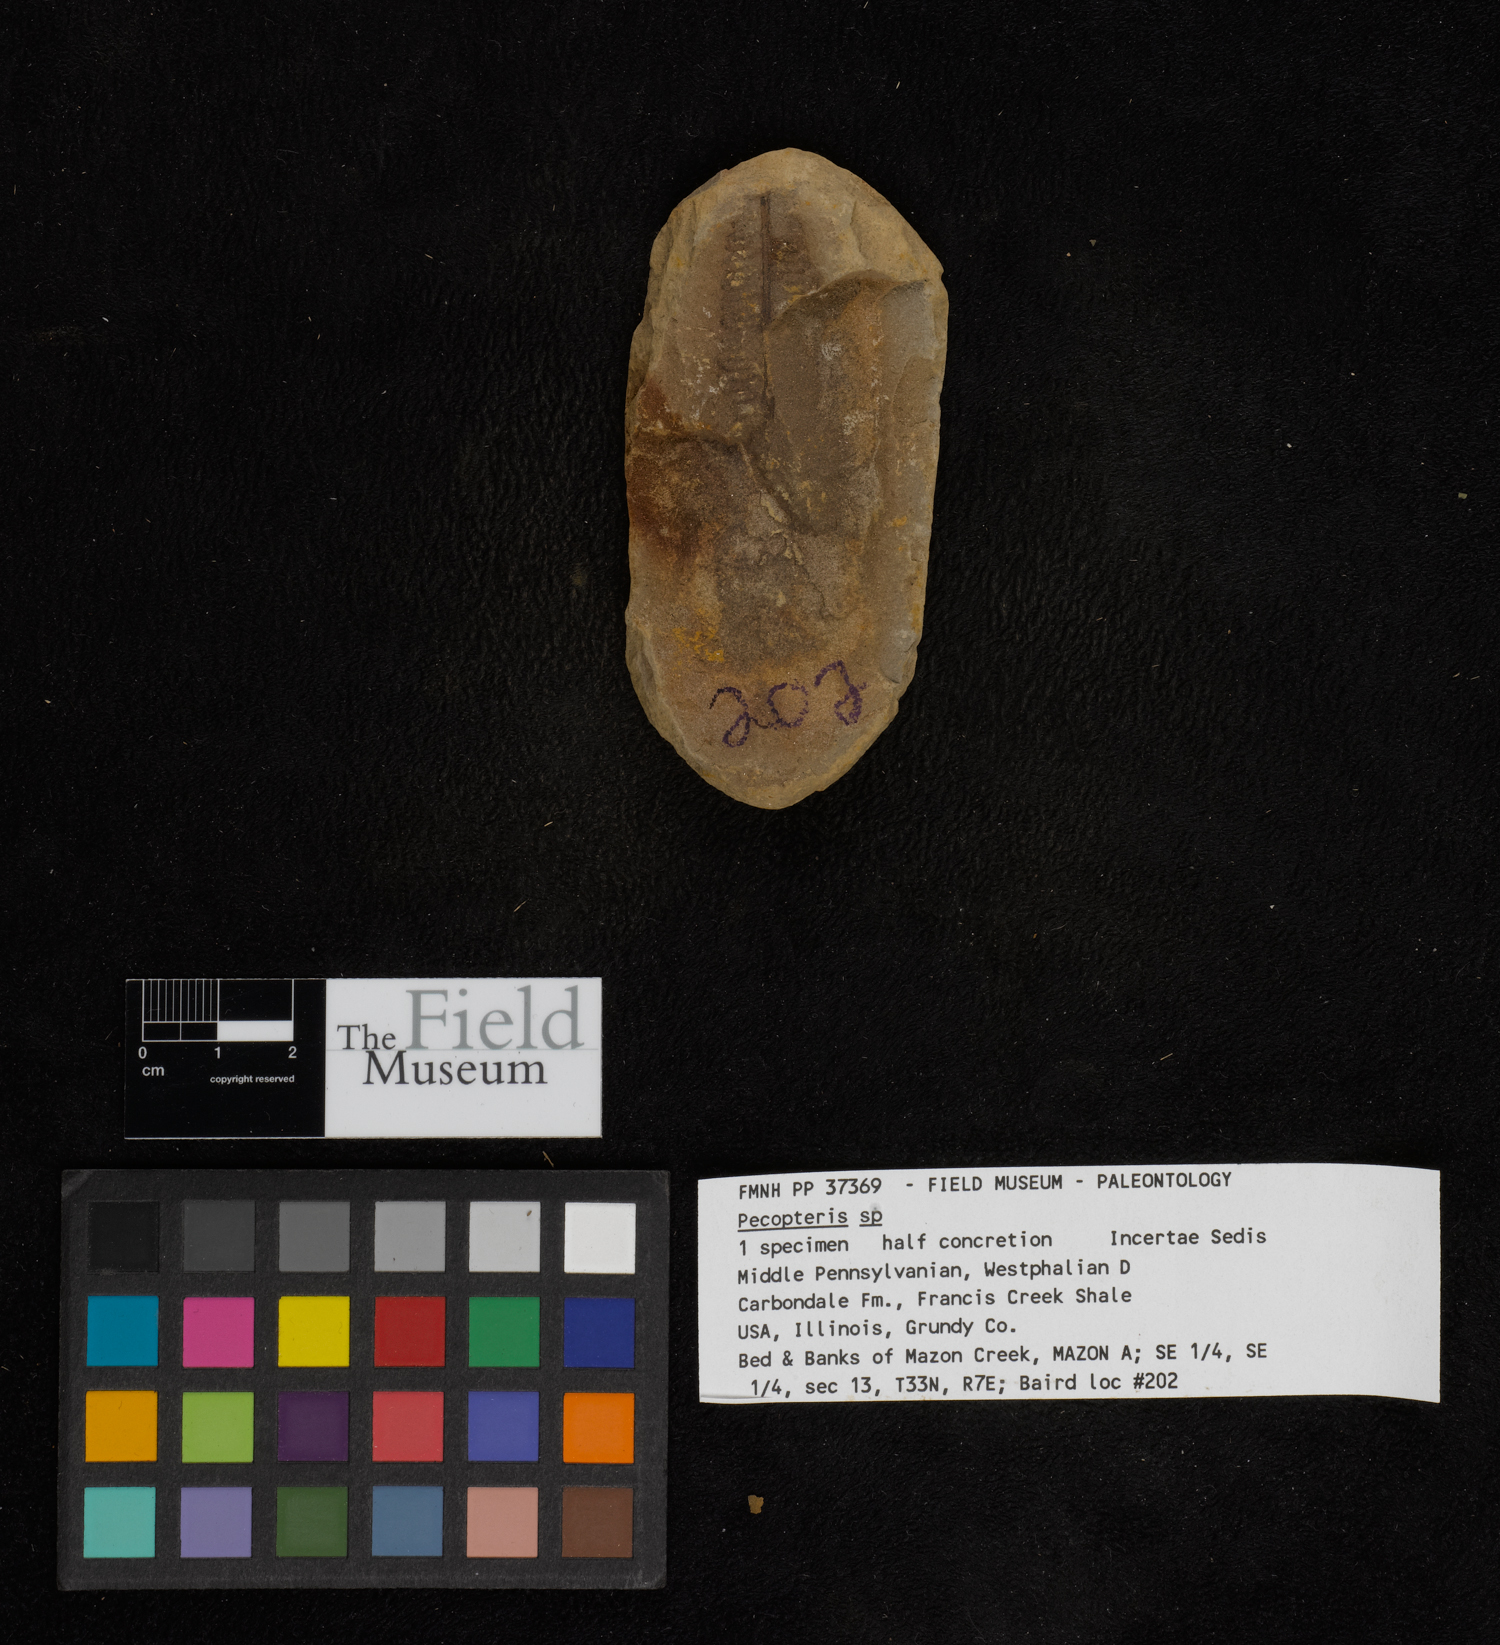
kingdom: Plantae
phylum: Tracheophyta
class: Polypodiopsida
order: Marattiales
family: Asterothecaceae
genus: Pecopteris
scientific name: Pecopteris
